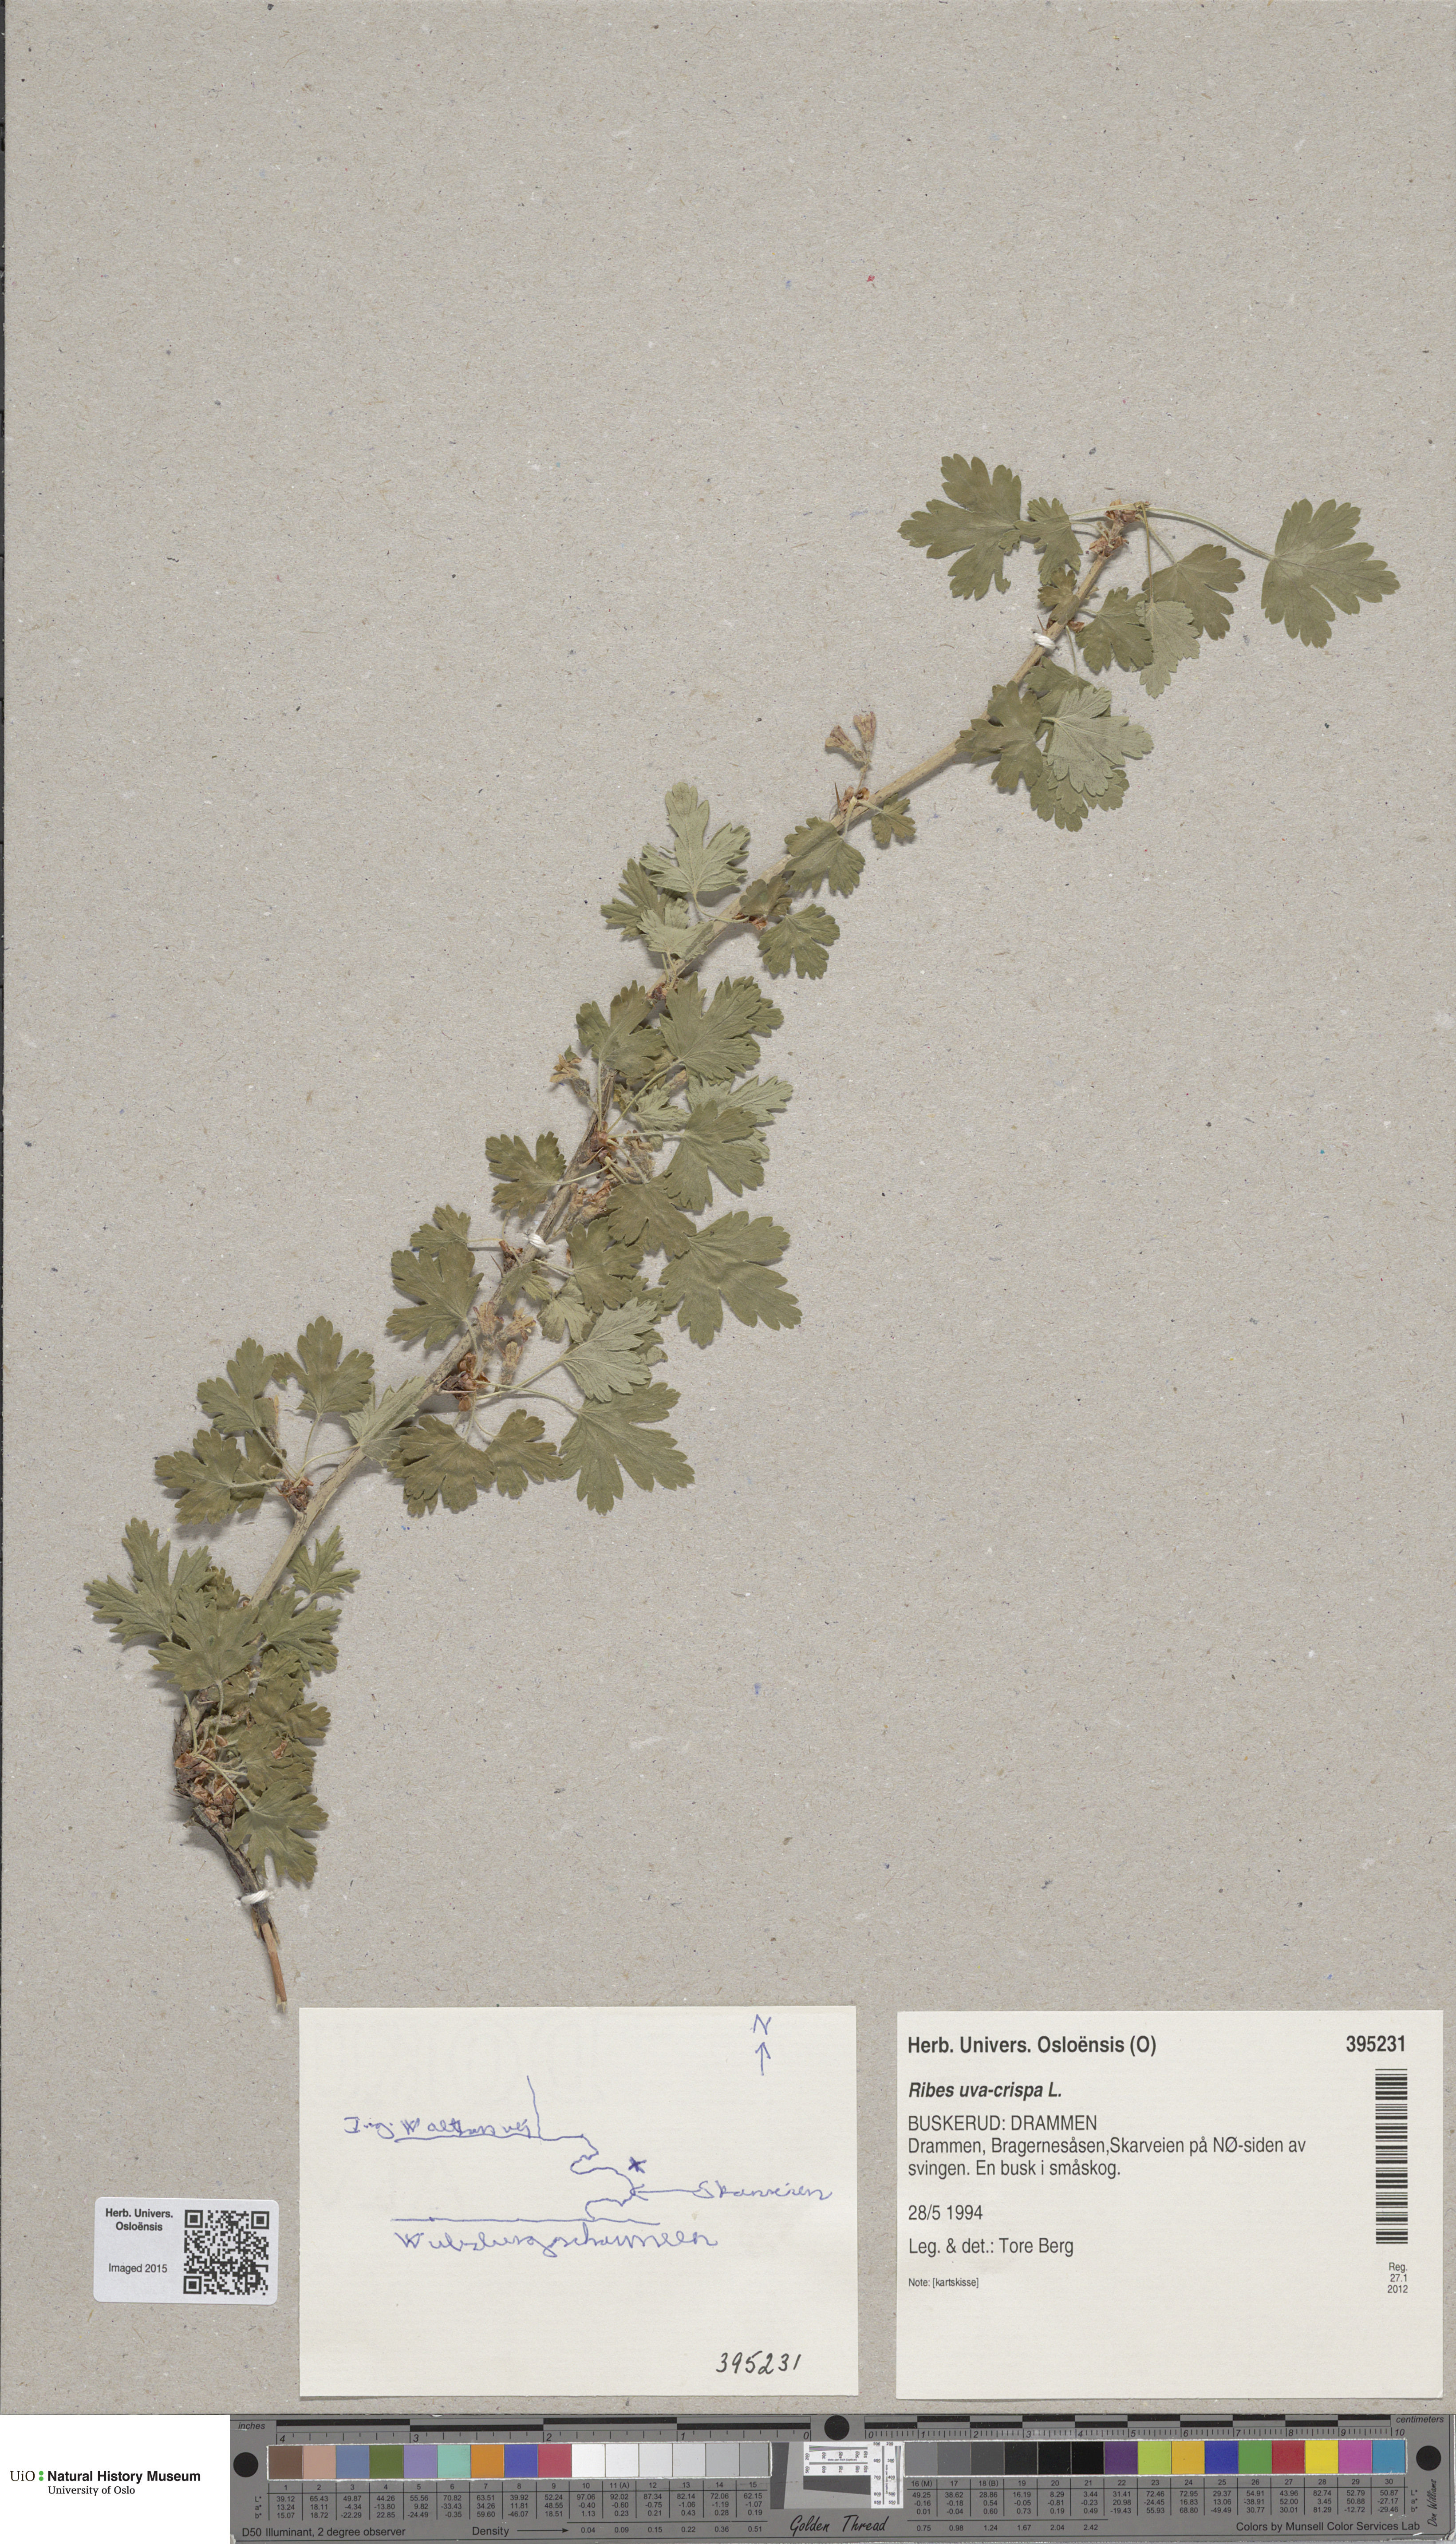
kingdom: Plantae
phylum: Tracheophyta
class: Magnoliopsida
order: Saxifragales
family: Grossulariaceae
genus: Ribes
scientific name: Ribes uva-crispa
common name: Gooseberry
